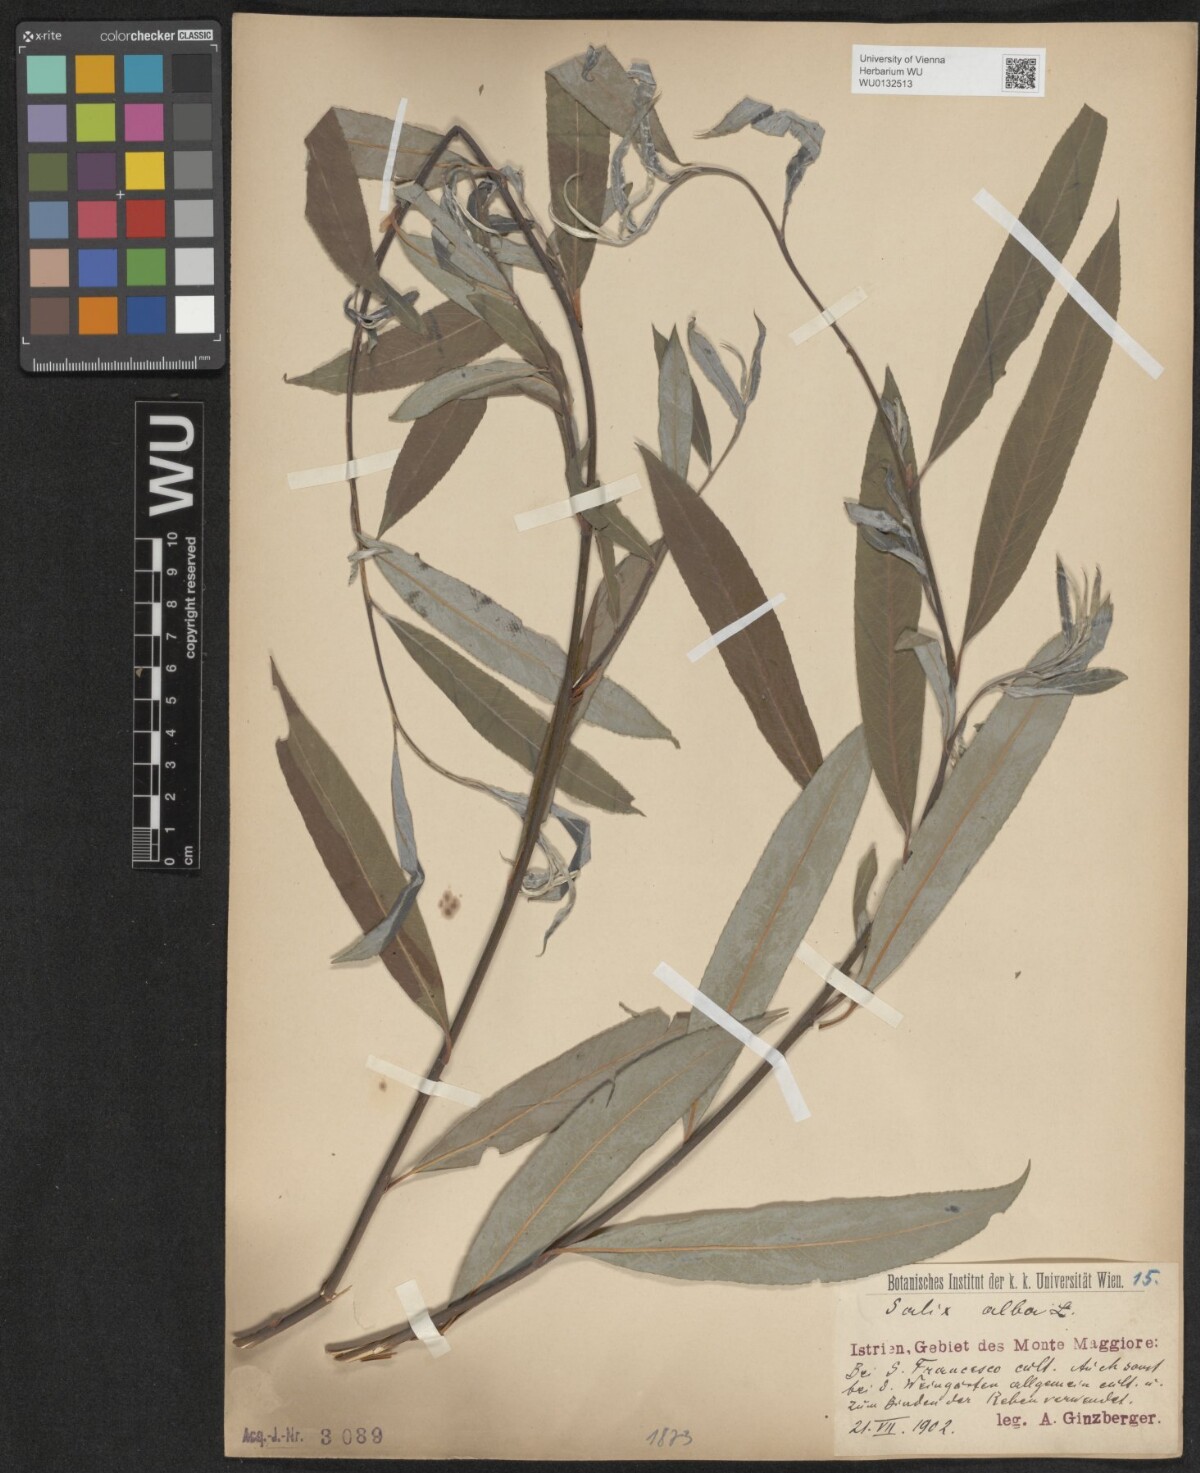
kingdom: Plantae
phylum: Tracheophyta
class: Magnoliopsida
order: Malpighiales
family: Salicaceae
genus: Salix
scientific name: Salix alba
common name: White willow
